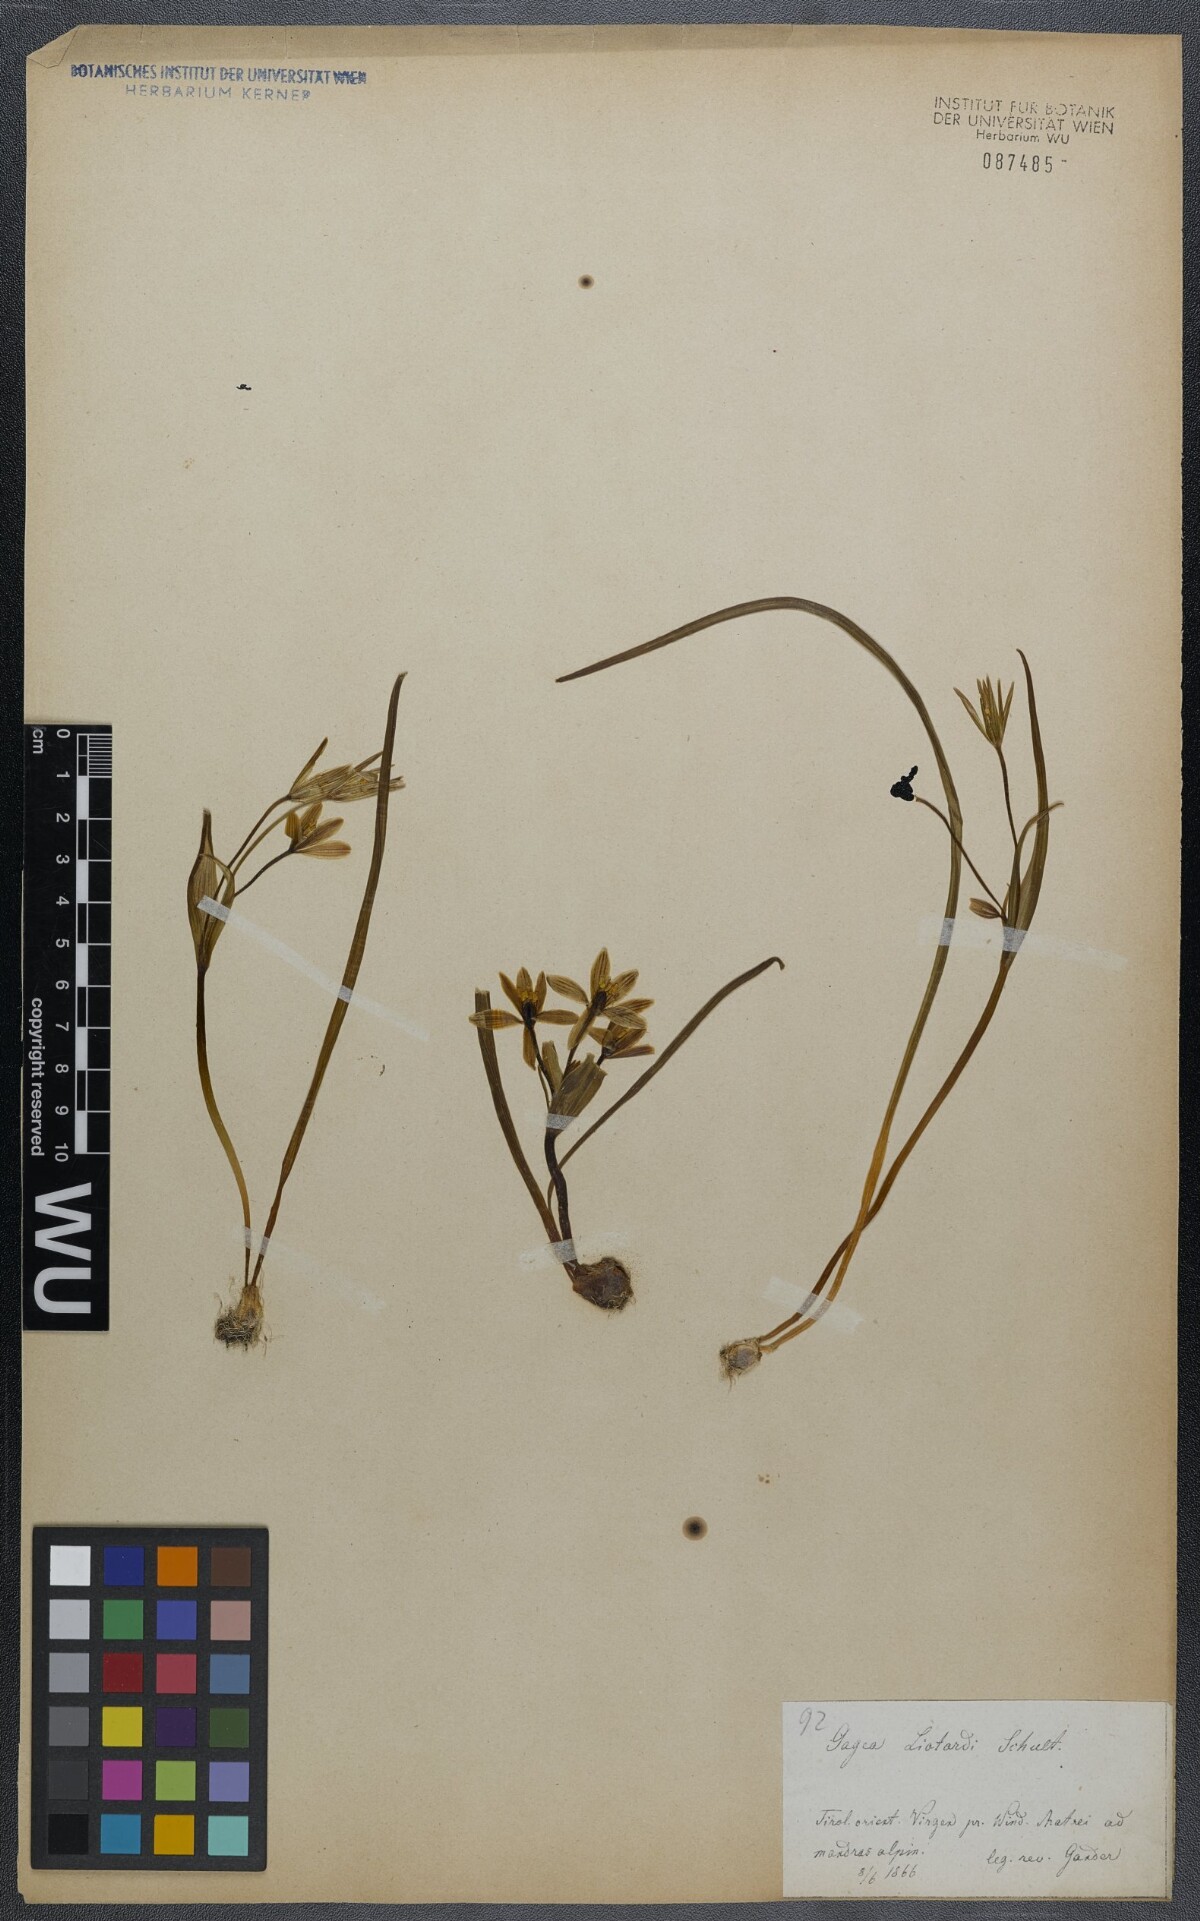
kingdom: Plantae
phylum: Tracheophyta
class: Liliopsida
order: Liliales
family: Liliaceae
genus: Gagea
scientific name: Gagea fragifera
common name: Lily
